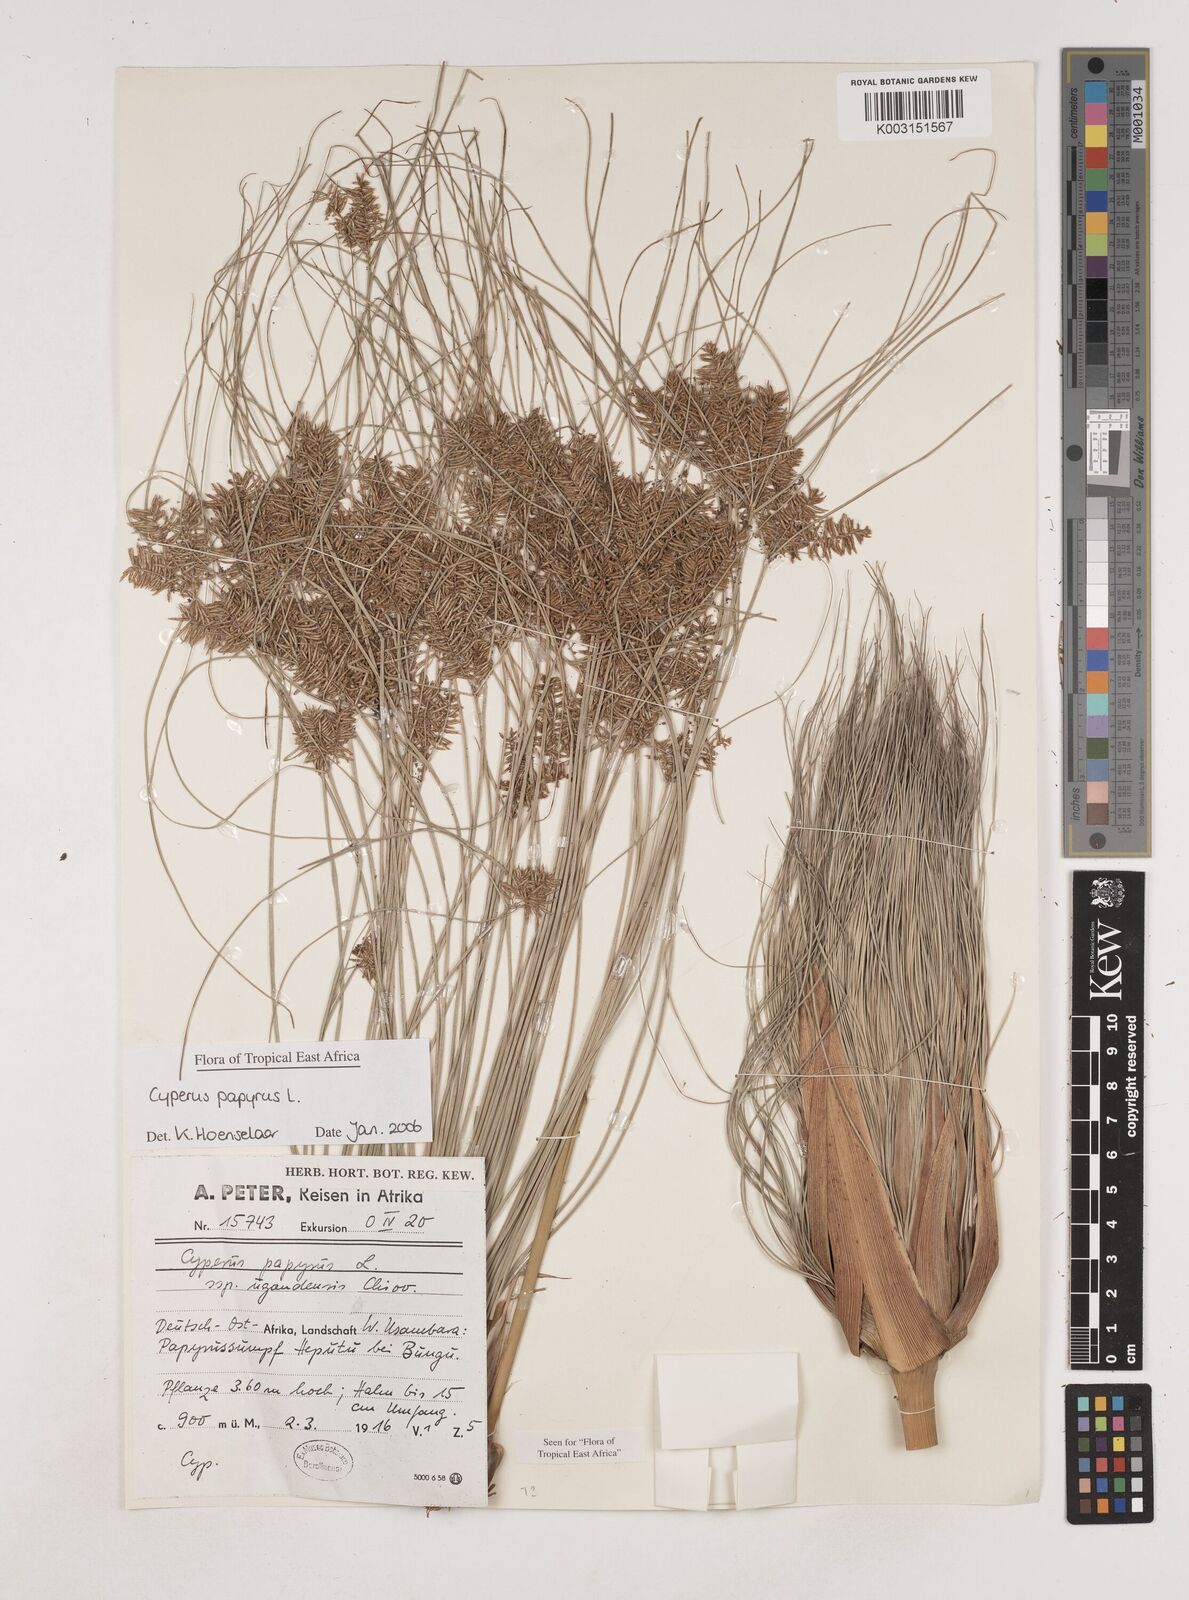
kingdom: Plantae
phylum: Tracheophyta
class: Liliopsida
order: Poales
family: Cyperaceae
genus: Cyperus
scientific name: Cyperus papyrus
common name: Papyrus
